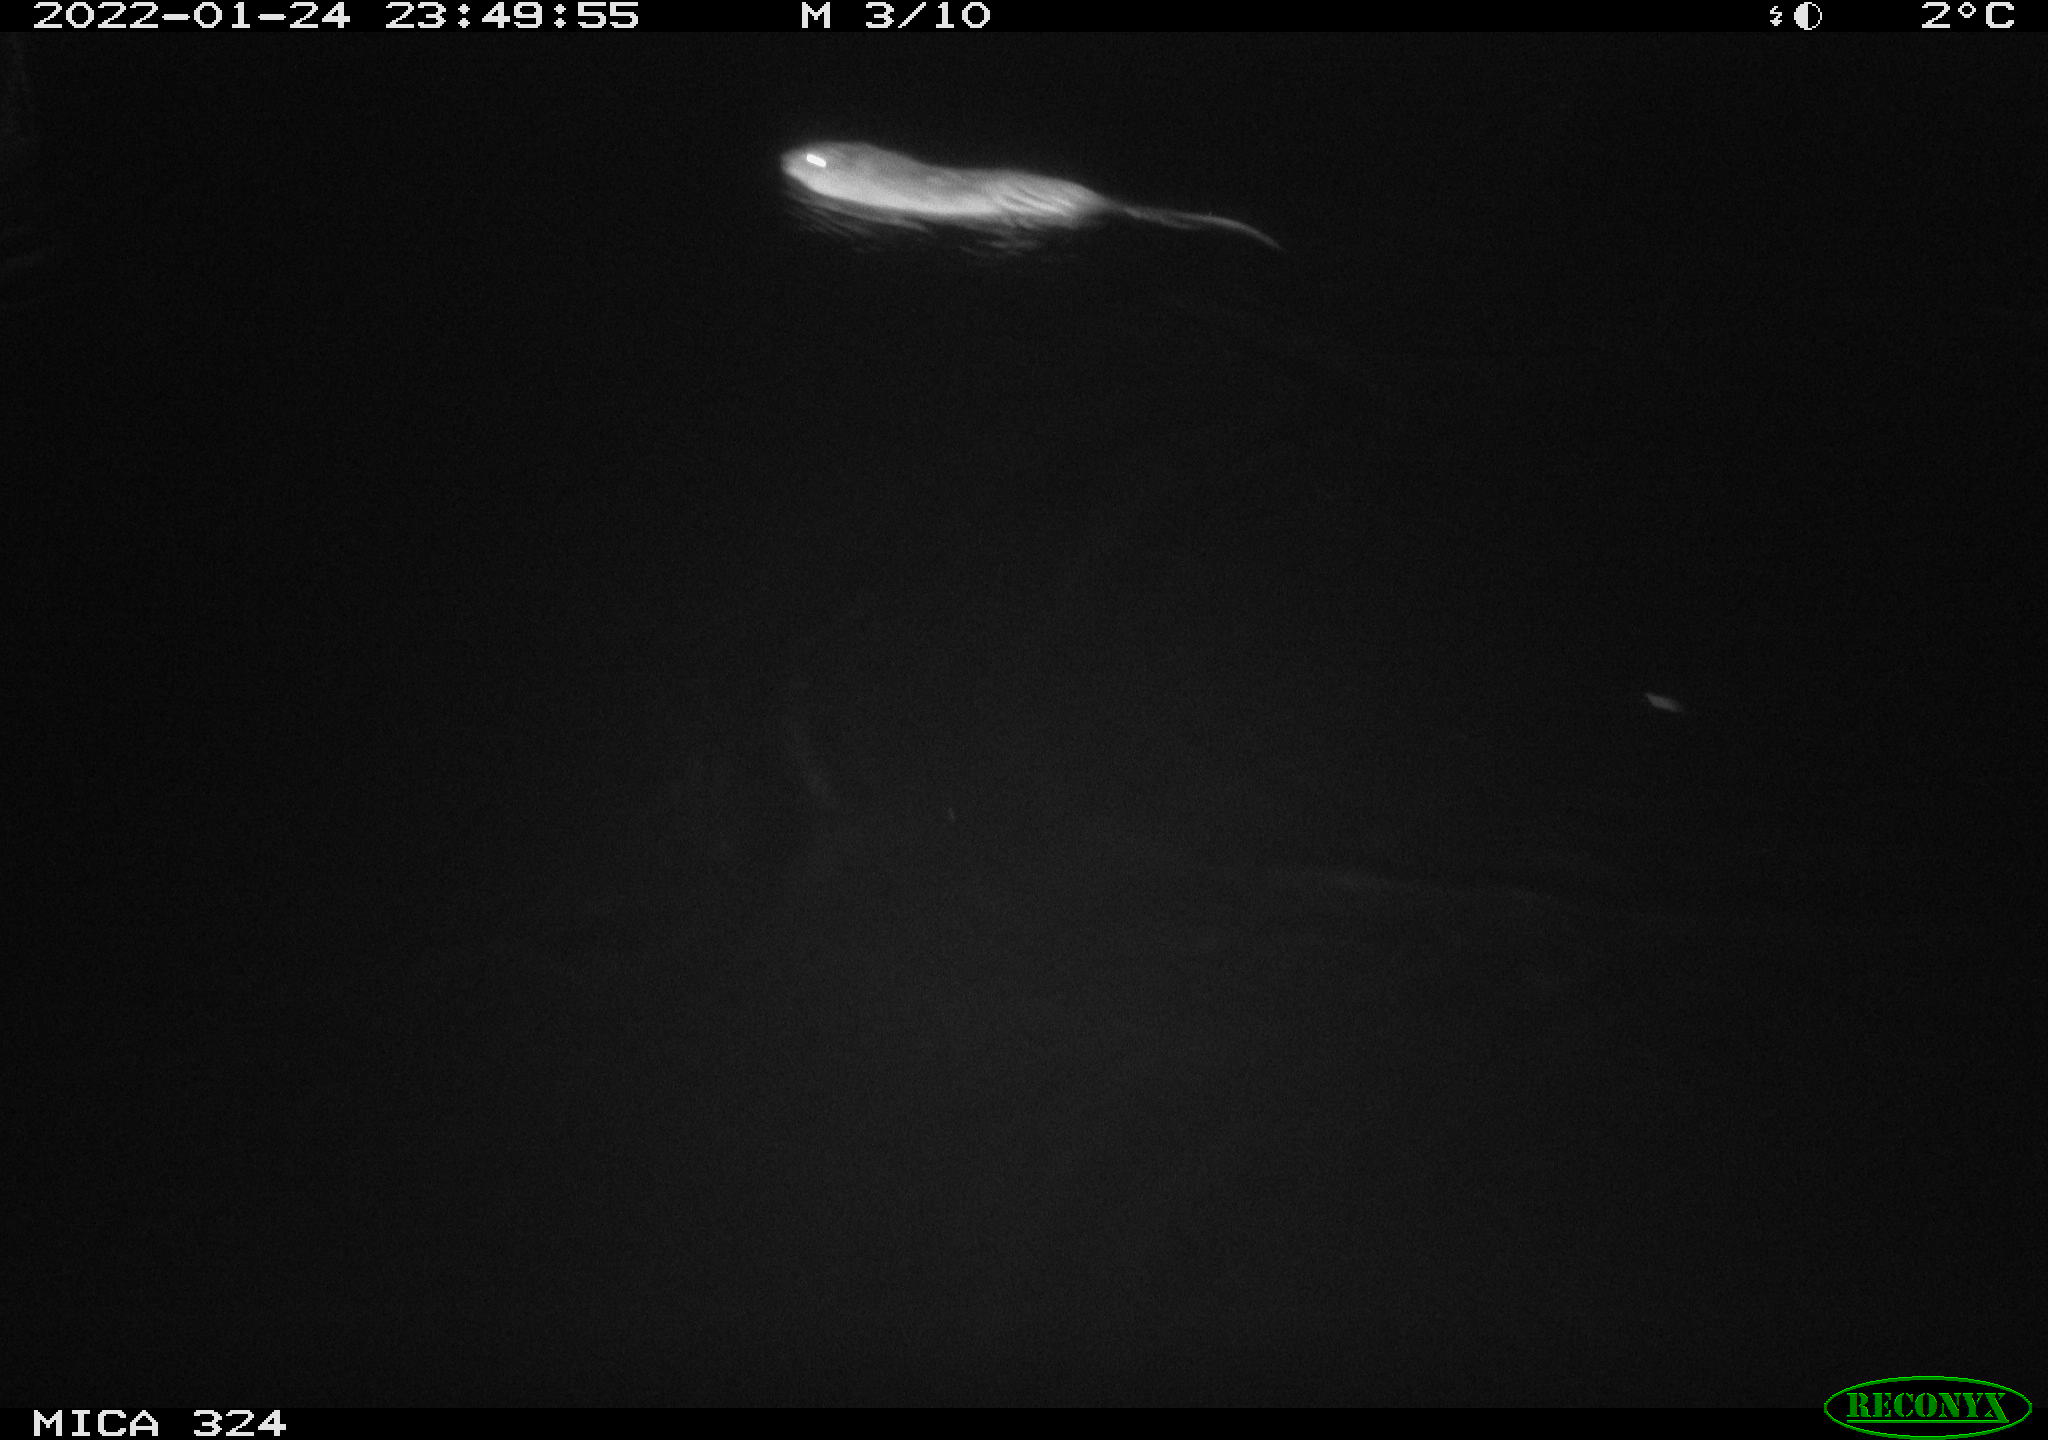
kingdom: Animalia
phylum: Chordata
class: Mammalia
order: Rodentia
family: Cricetidae
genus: Ondatra
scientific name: Ondatra zibethicus
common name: Muskrat
